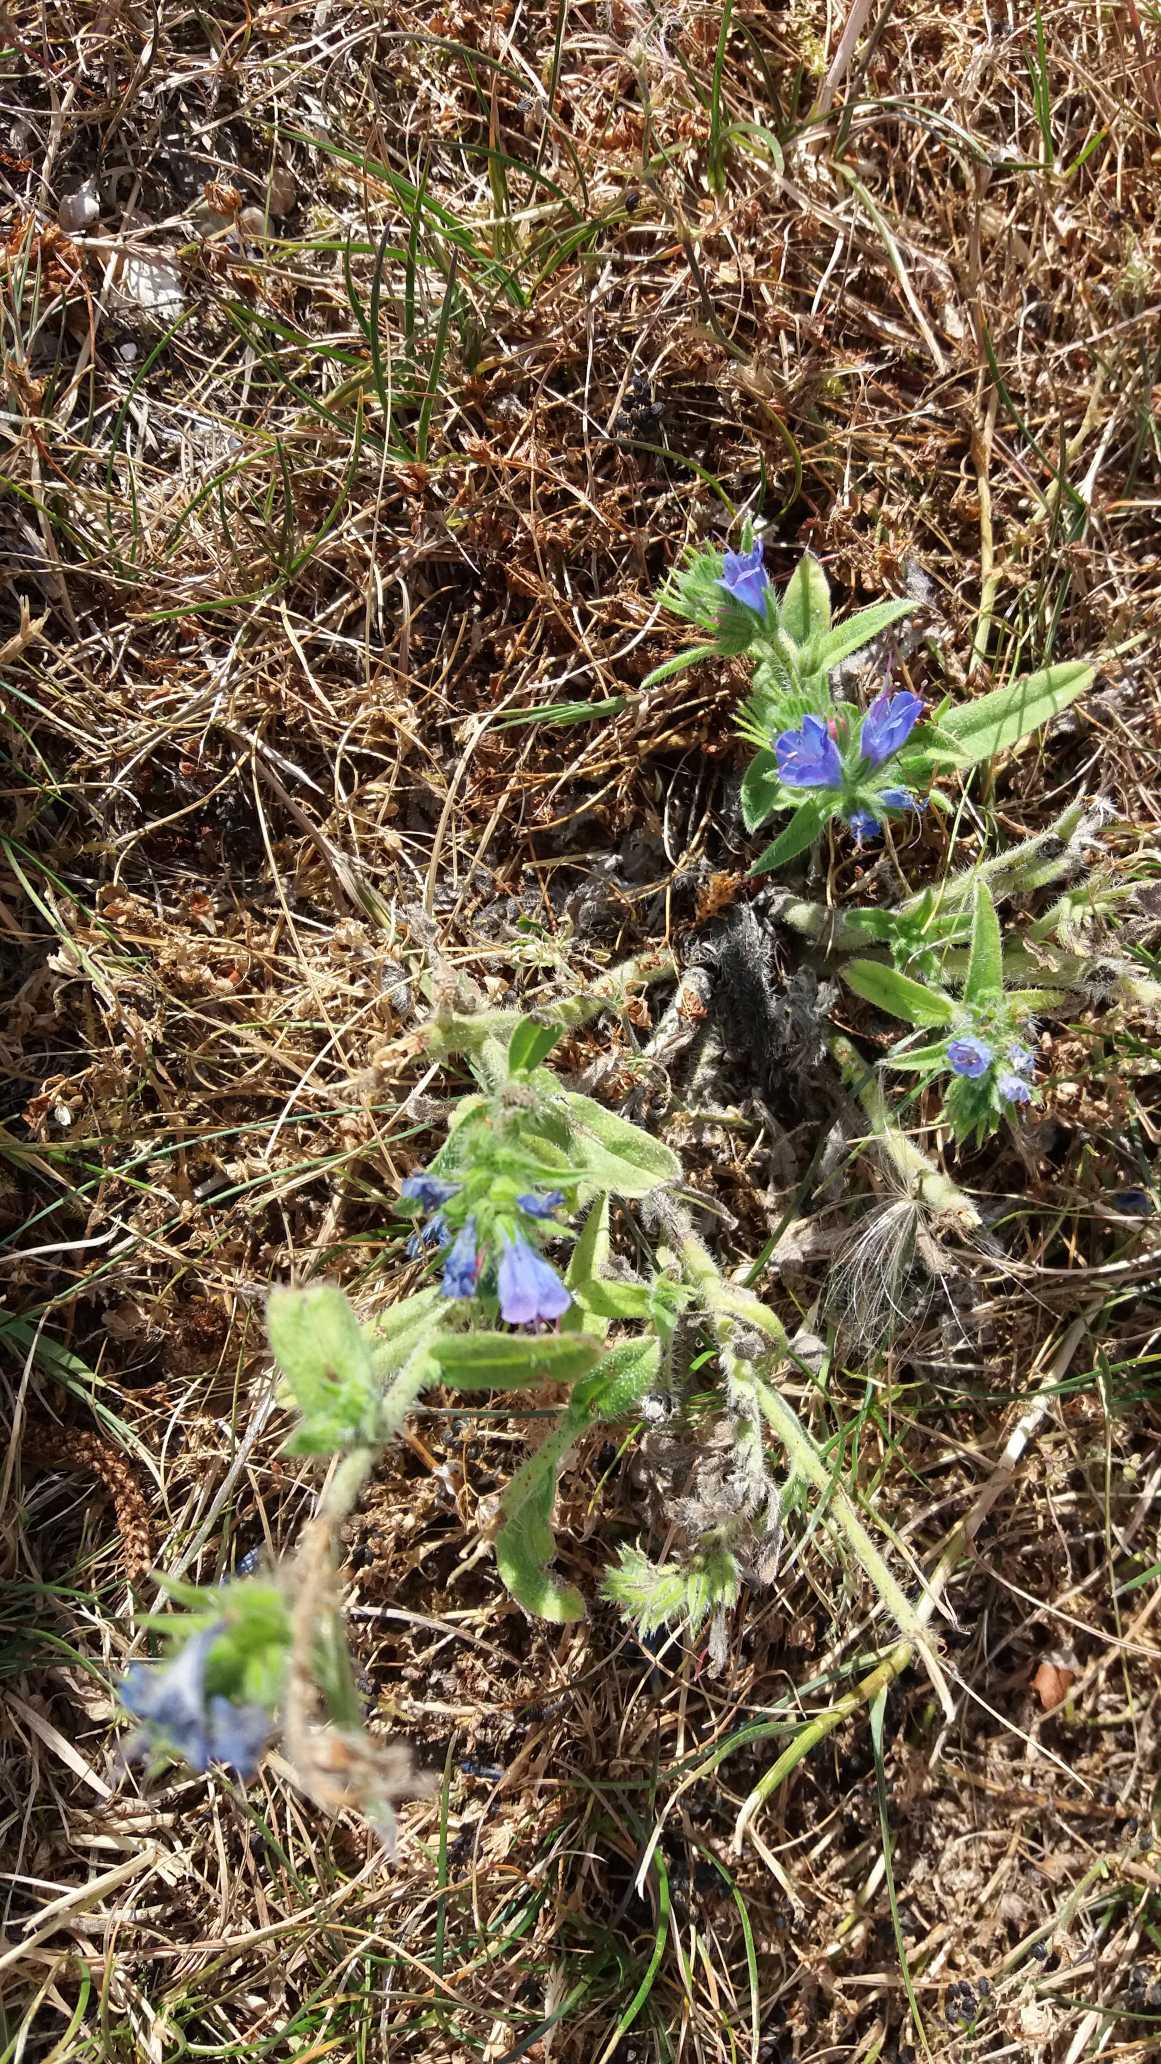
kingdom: Plantae
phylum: Tracheophyta
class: Magnoliopsida
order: Boraginales
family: Boraginaceae
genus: Echium
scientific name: Echium vulgare
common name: Slangehoved
